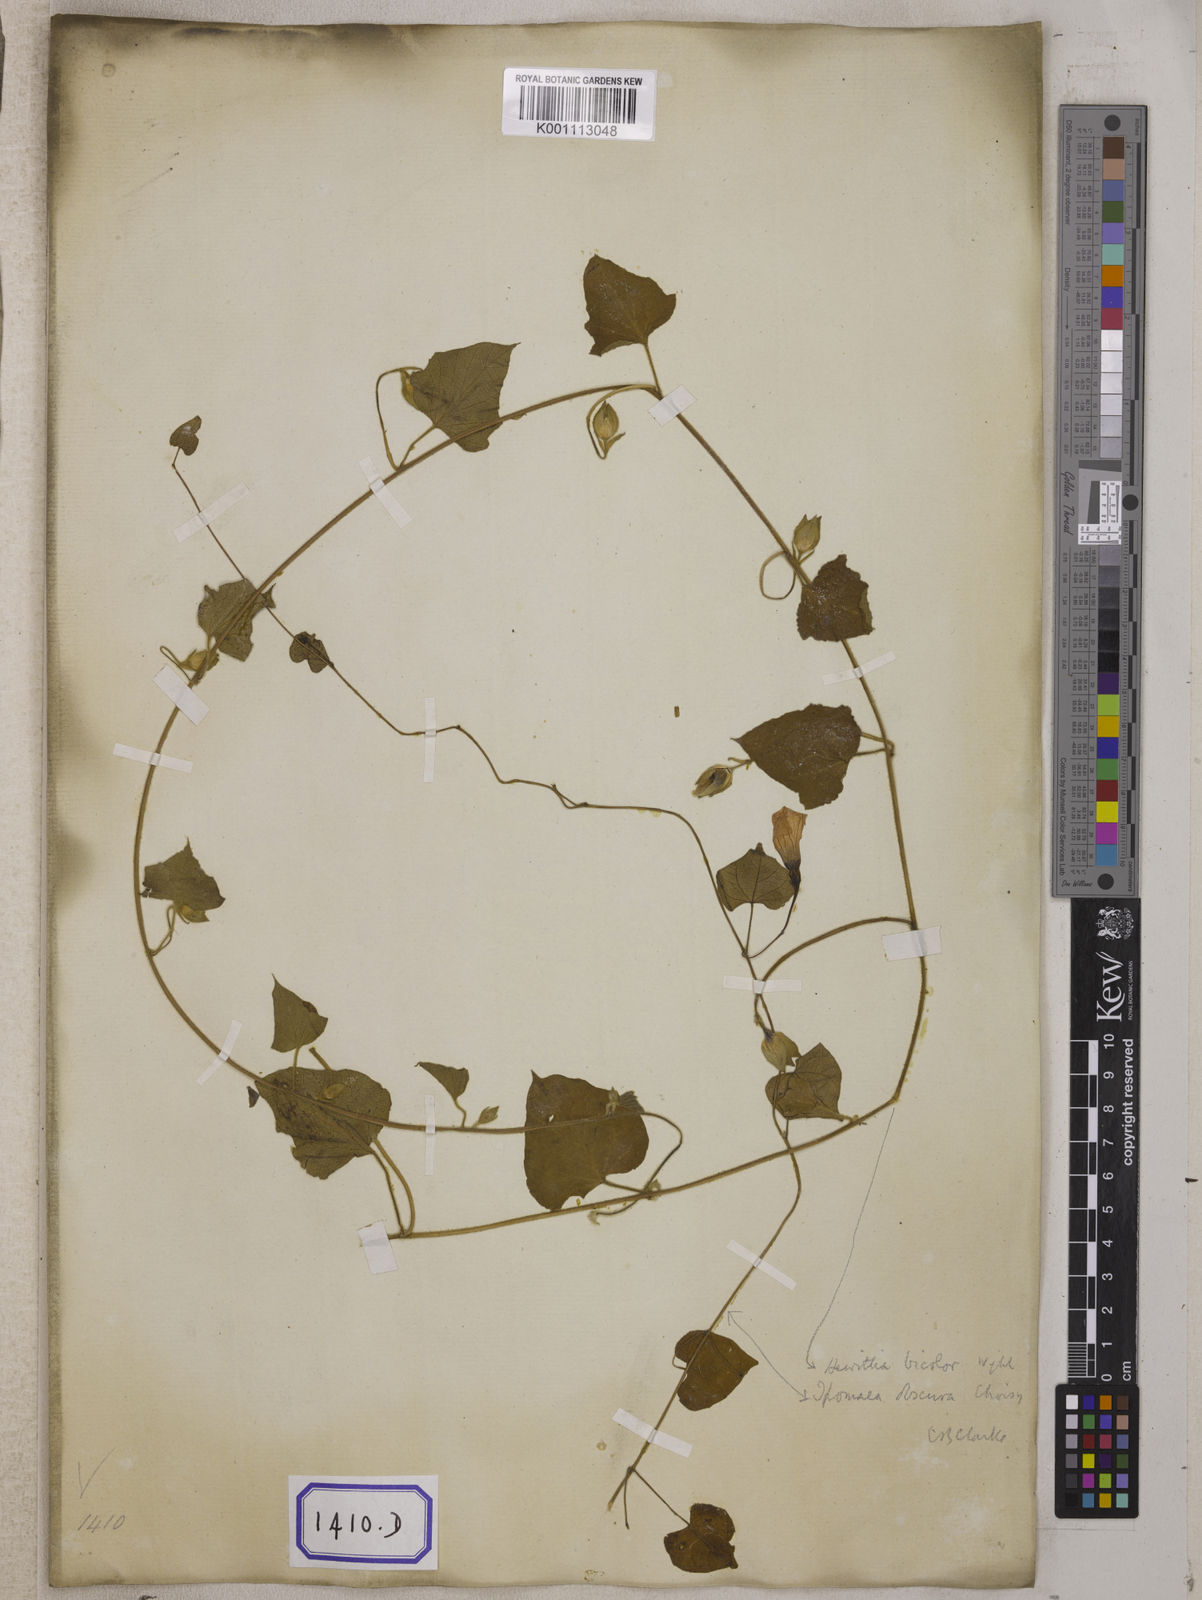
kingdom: Plantae
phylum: Tracheophyta
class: Magnoliopsida
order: Solanales
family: Convolvulaceae
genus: Convolvulus
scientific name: Convolvulus
